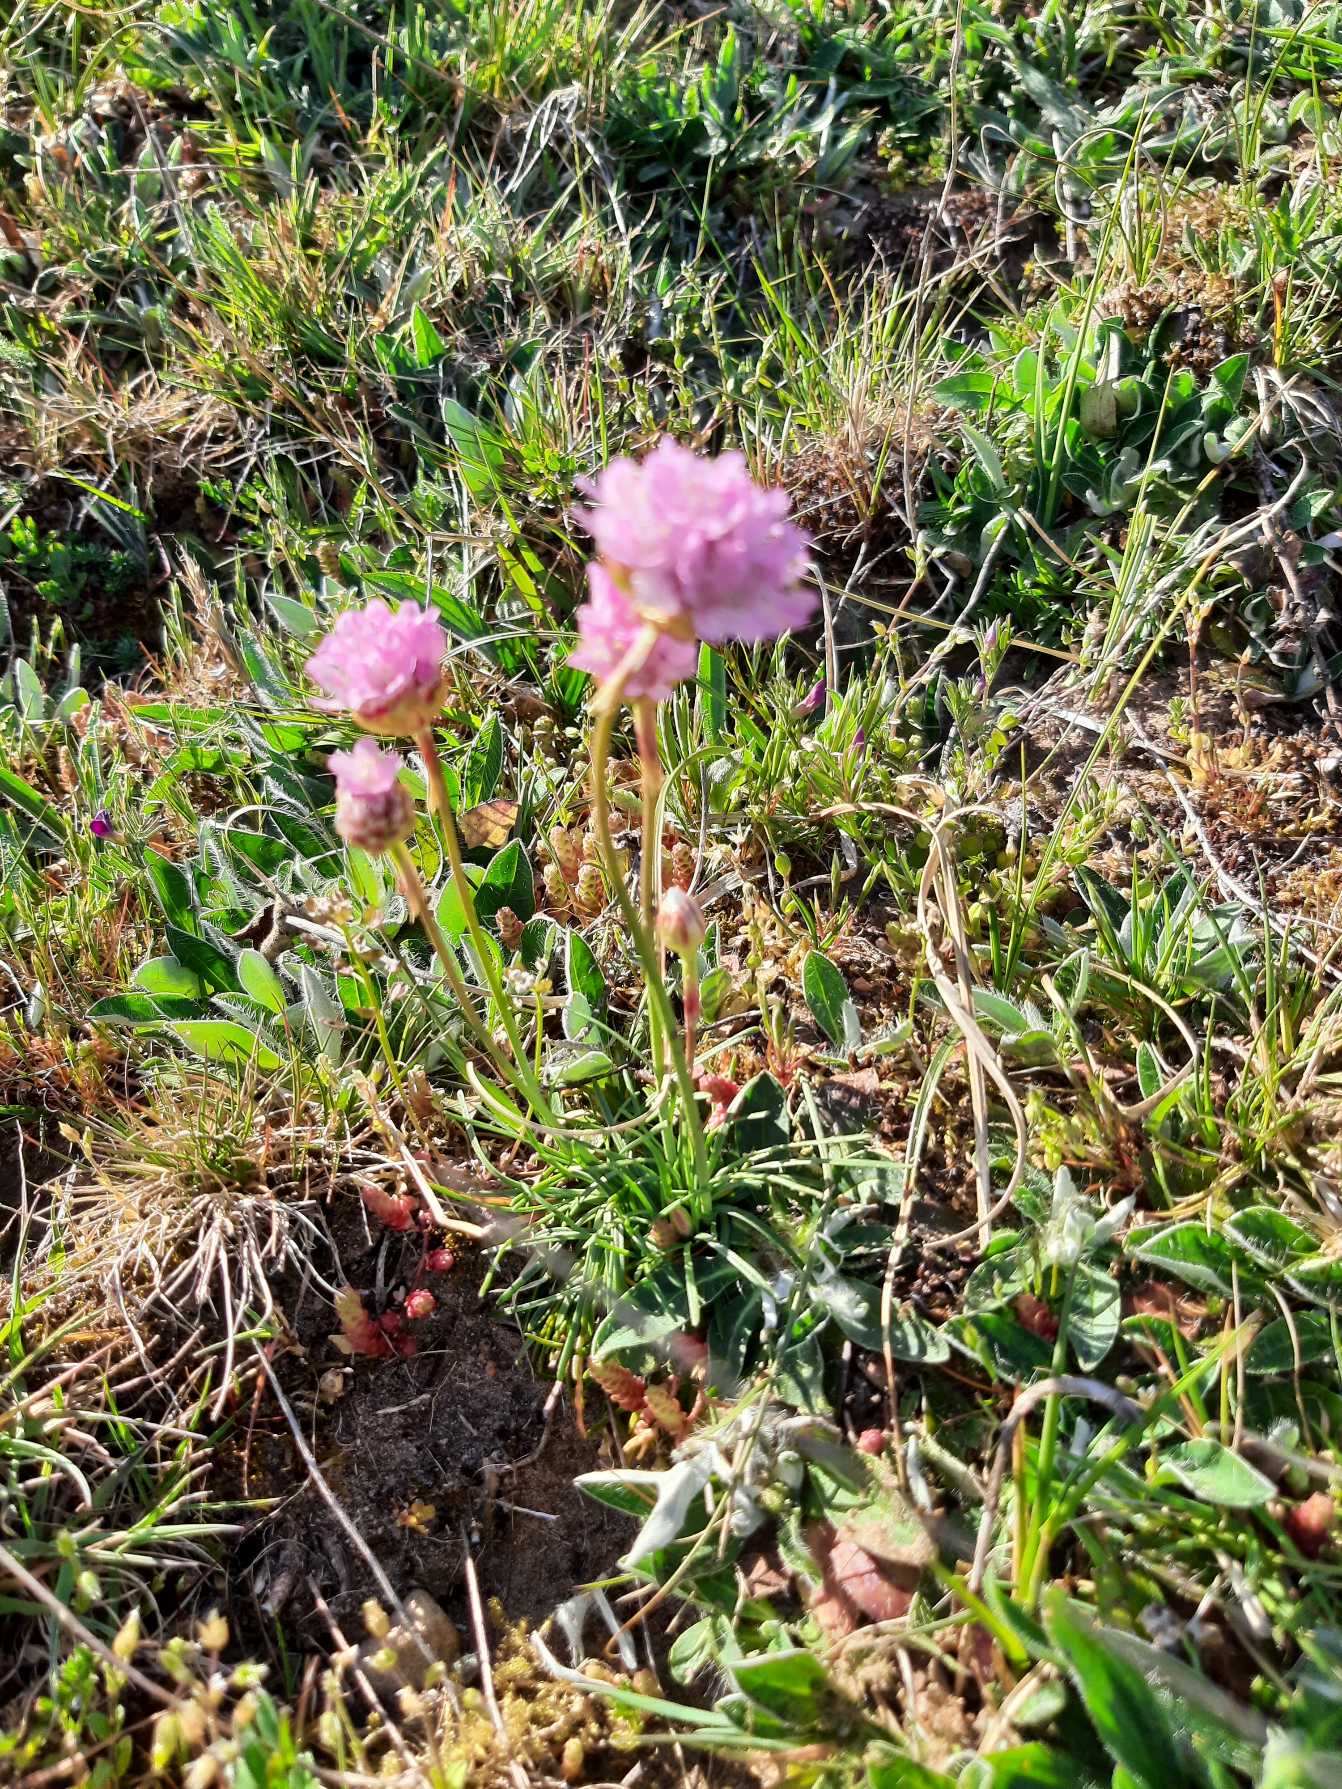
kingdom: Plantae
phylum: Tracheophyta
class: Magnoliopsida
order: Caryophyllales
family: Plumbaginaceae
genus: Armeria
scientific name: Armeria maritima
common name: Engelskgræs
